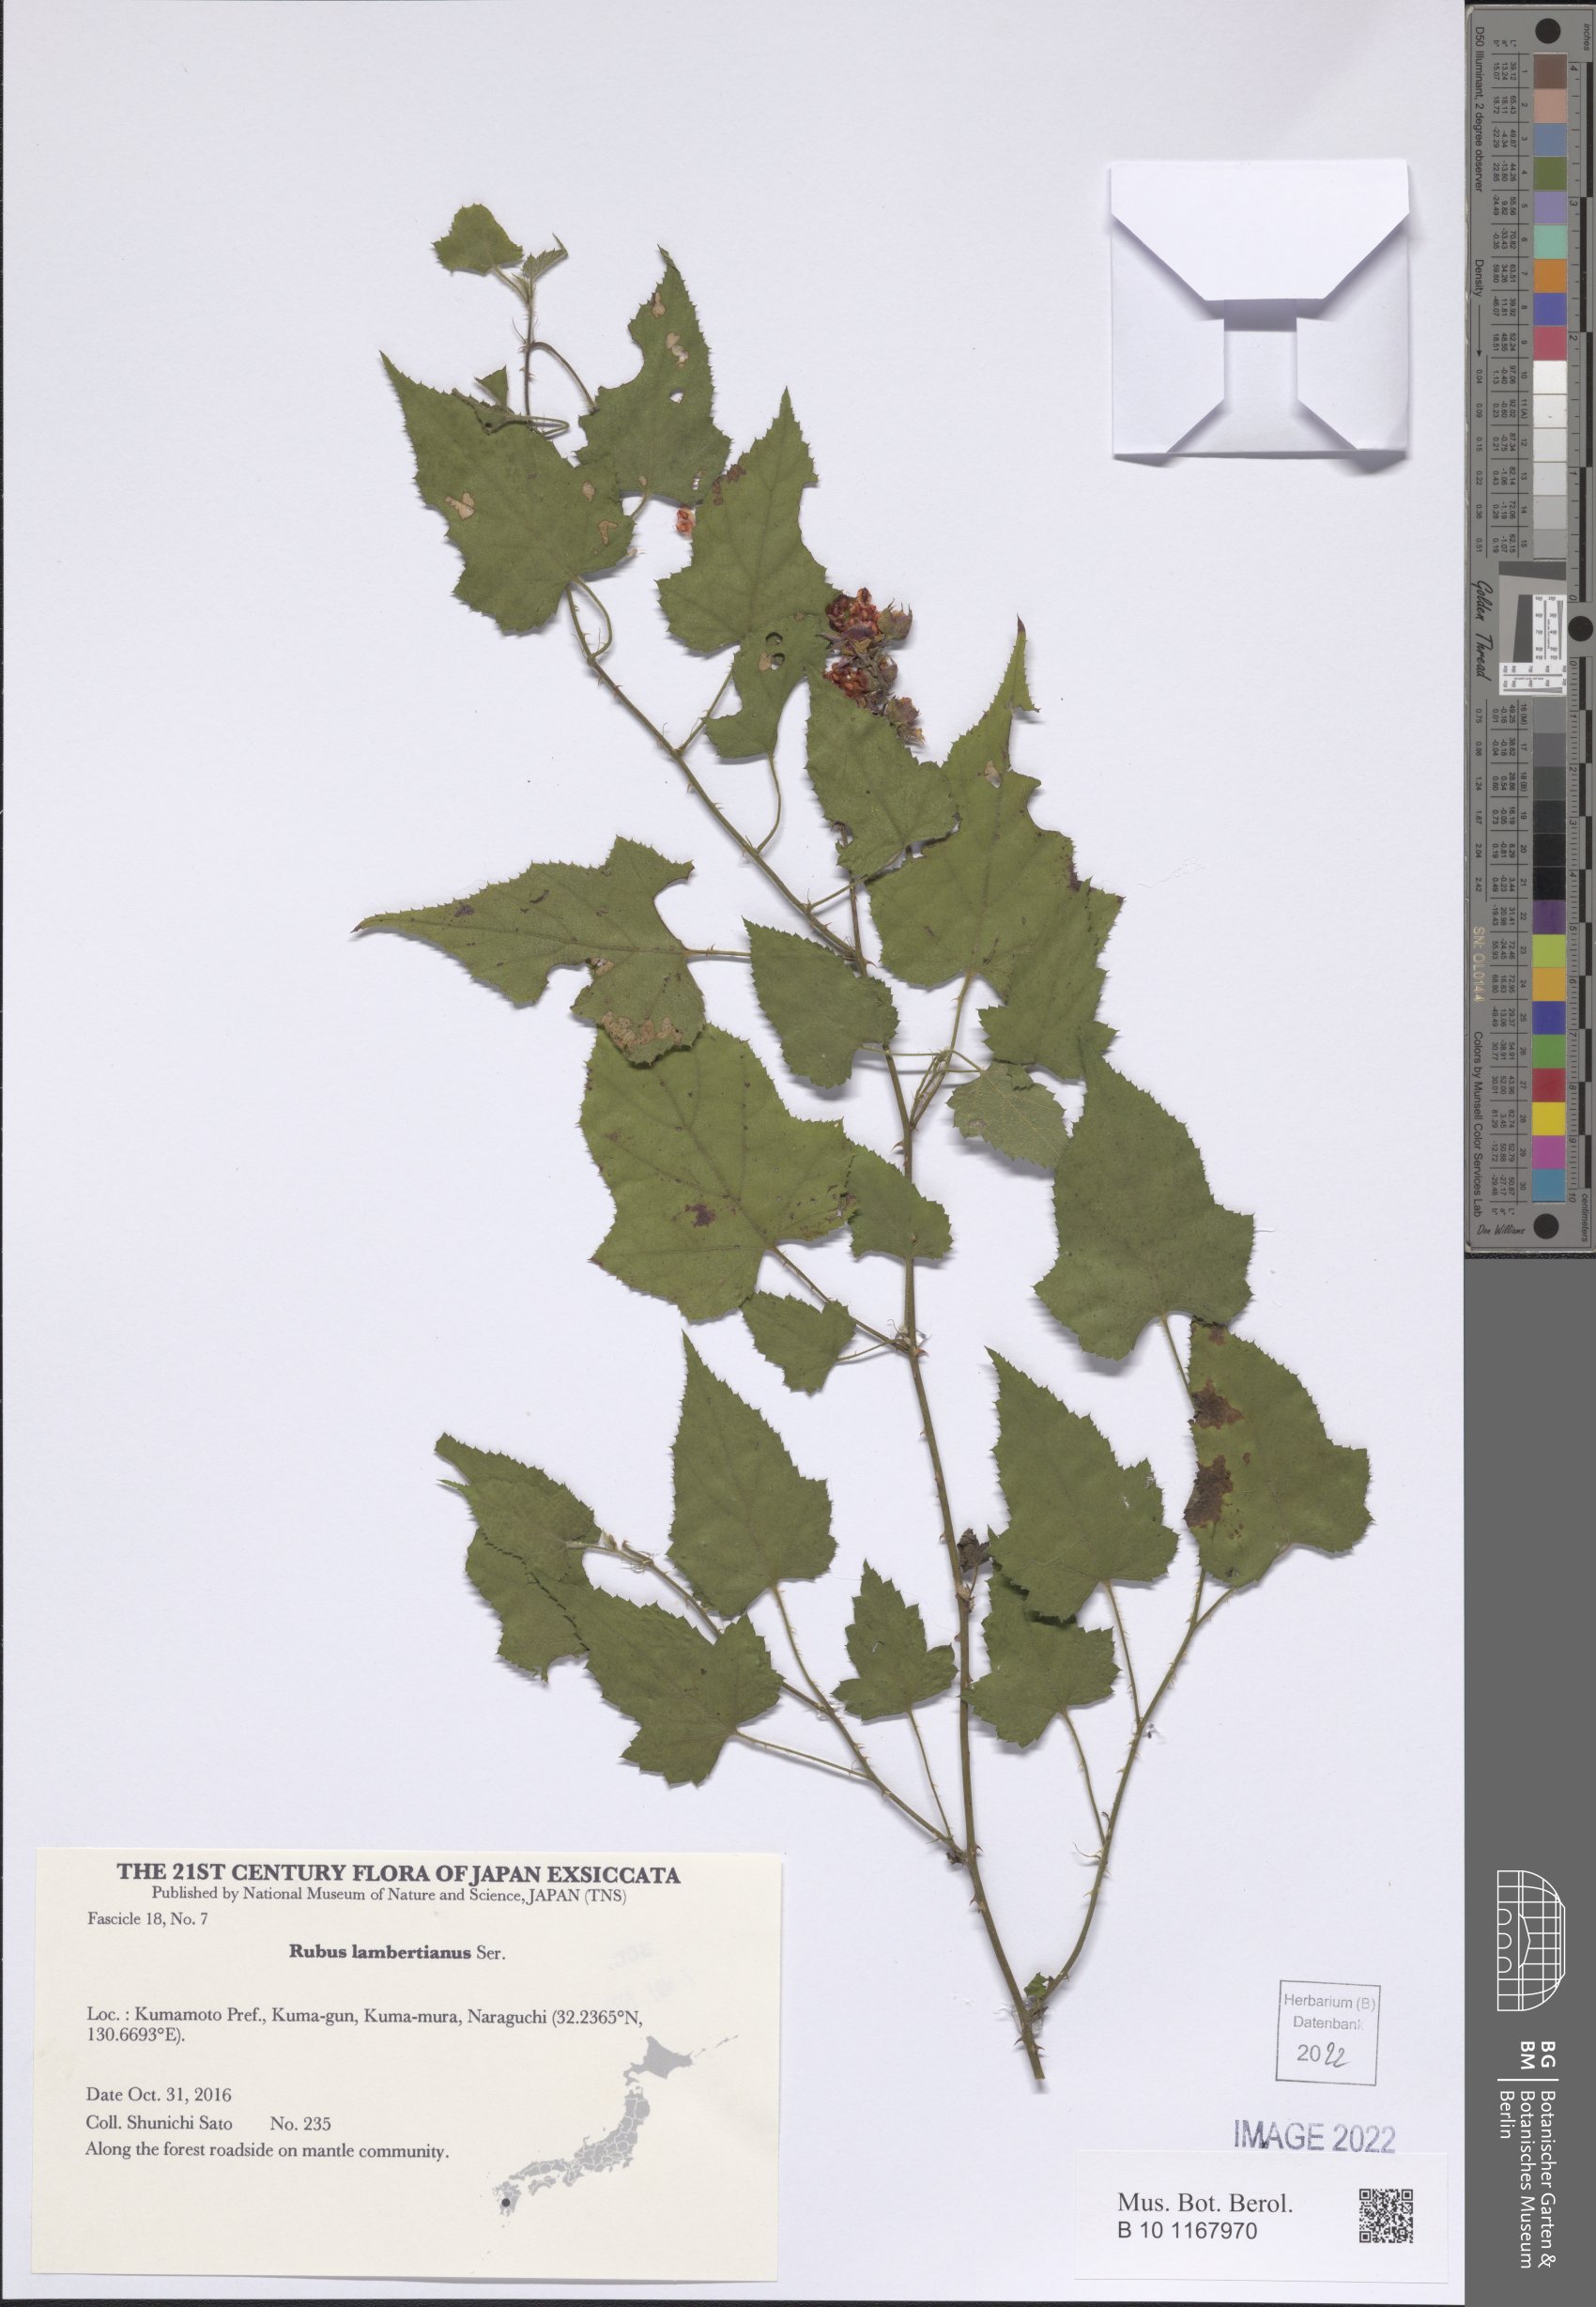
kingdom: Plantae
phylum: Tracheophyta
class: Magnoliopsida
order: Rosales
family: Rosaceae
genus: Rubus
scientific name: Rubus lambertianus
